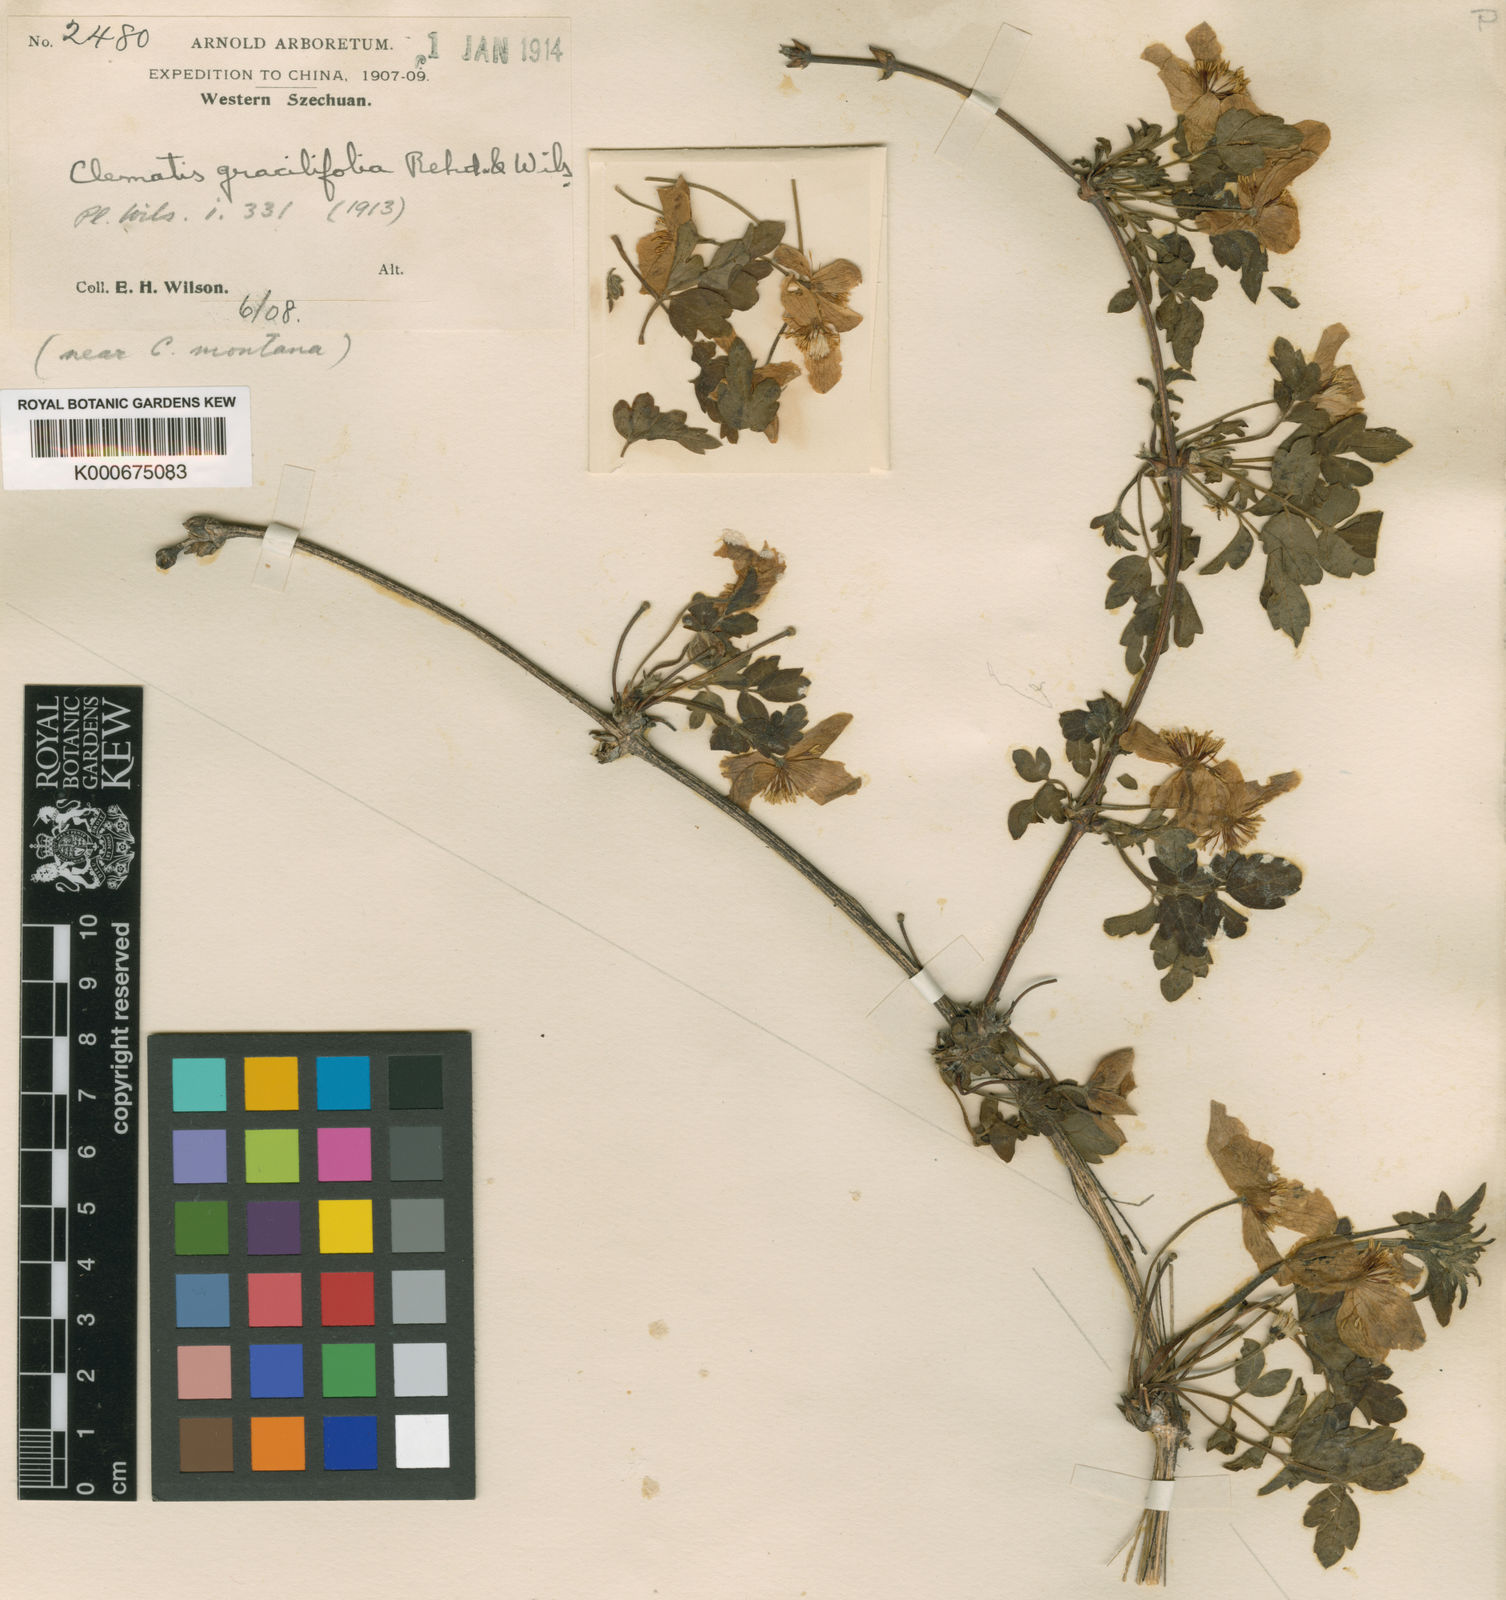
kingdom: Plantae
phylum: Tracheophyta
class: Magnoliopsida
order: Ranunculales
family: Ranunculaceae
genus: Clematis
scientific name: Clematis gracilifolia
